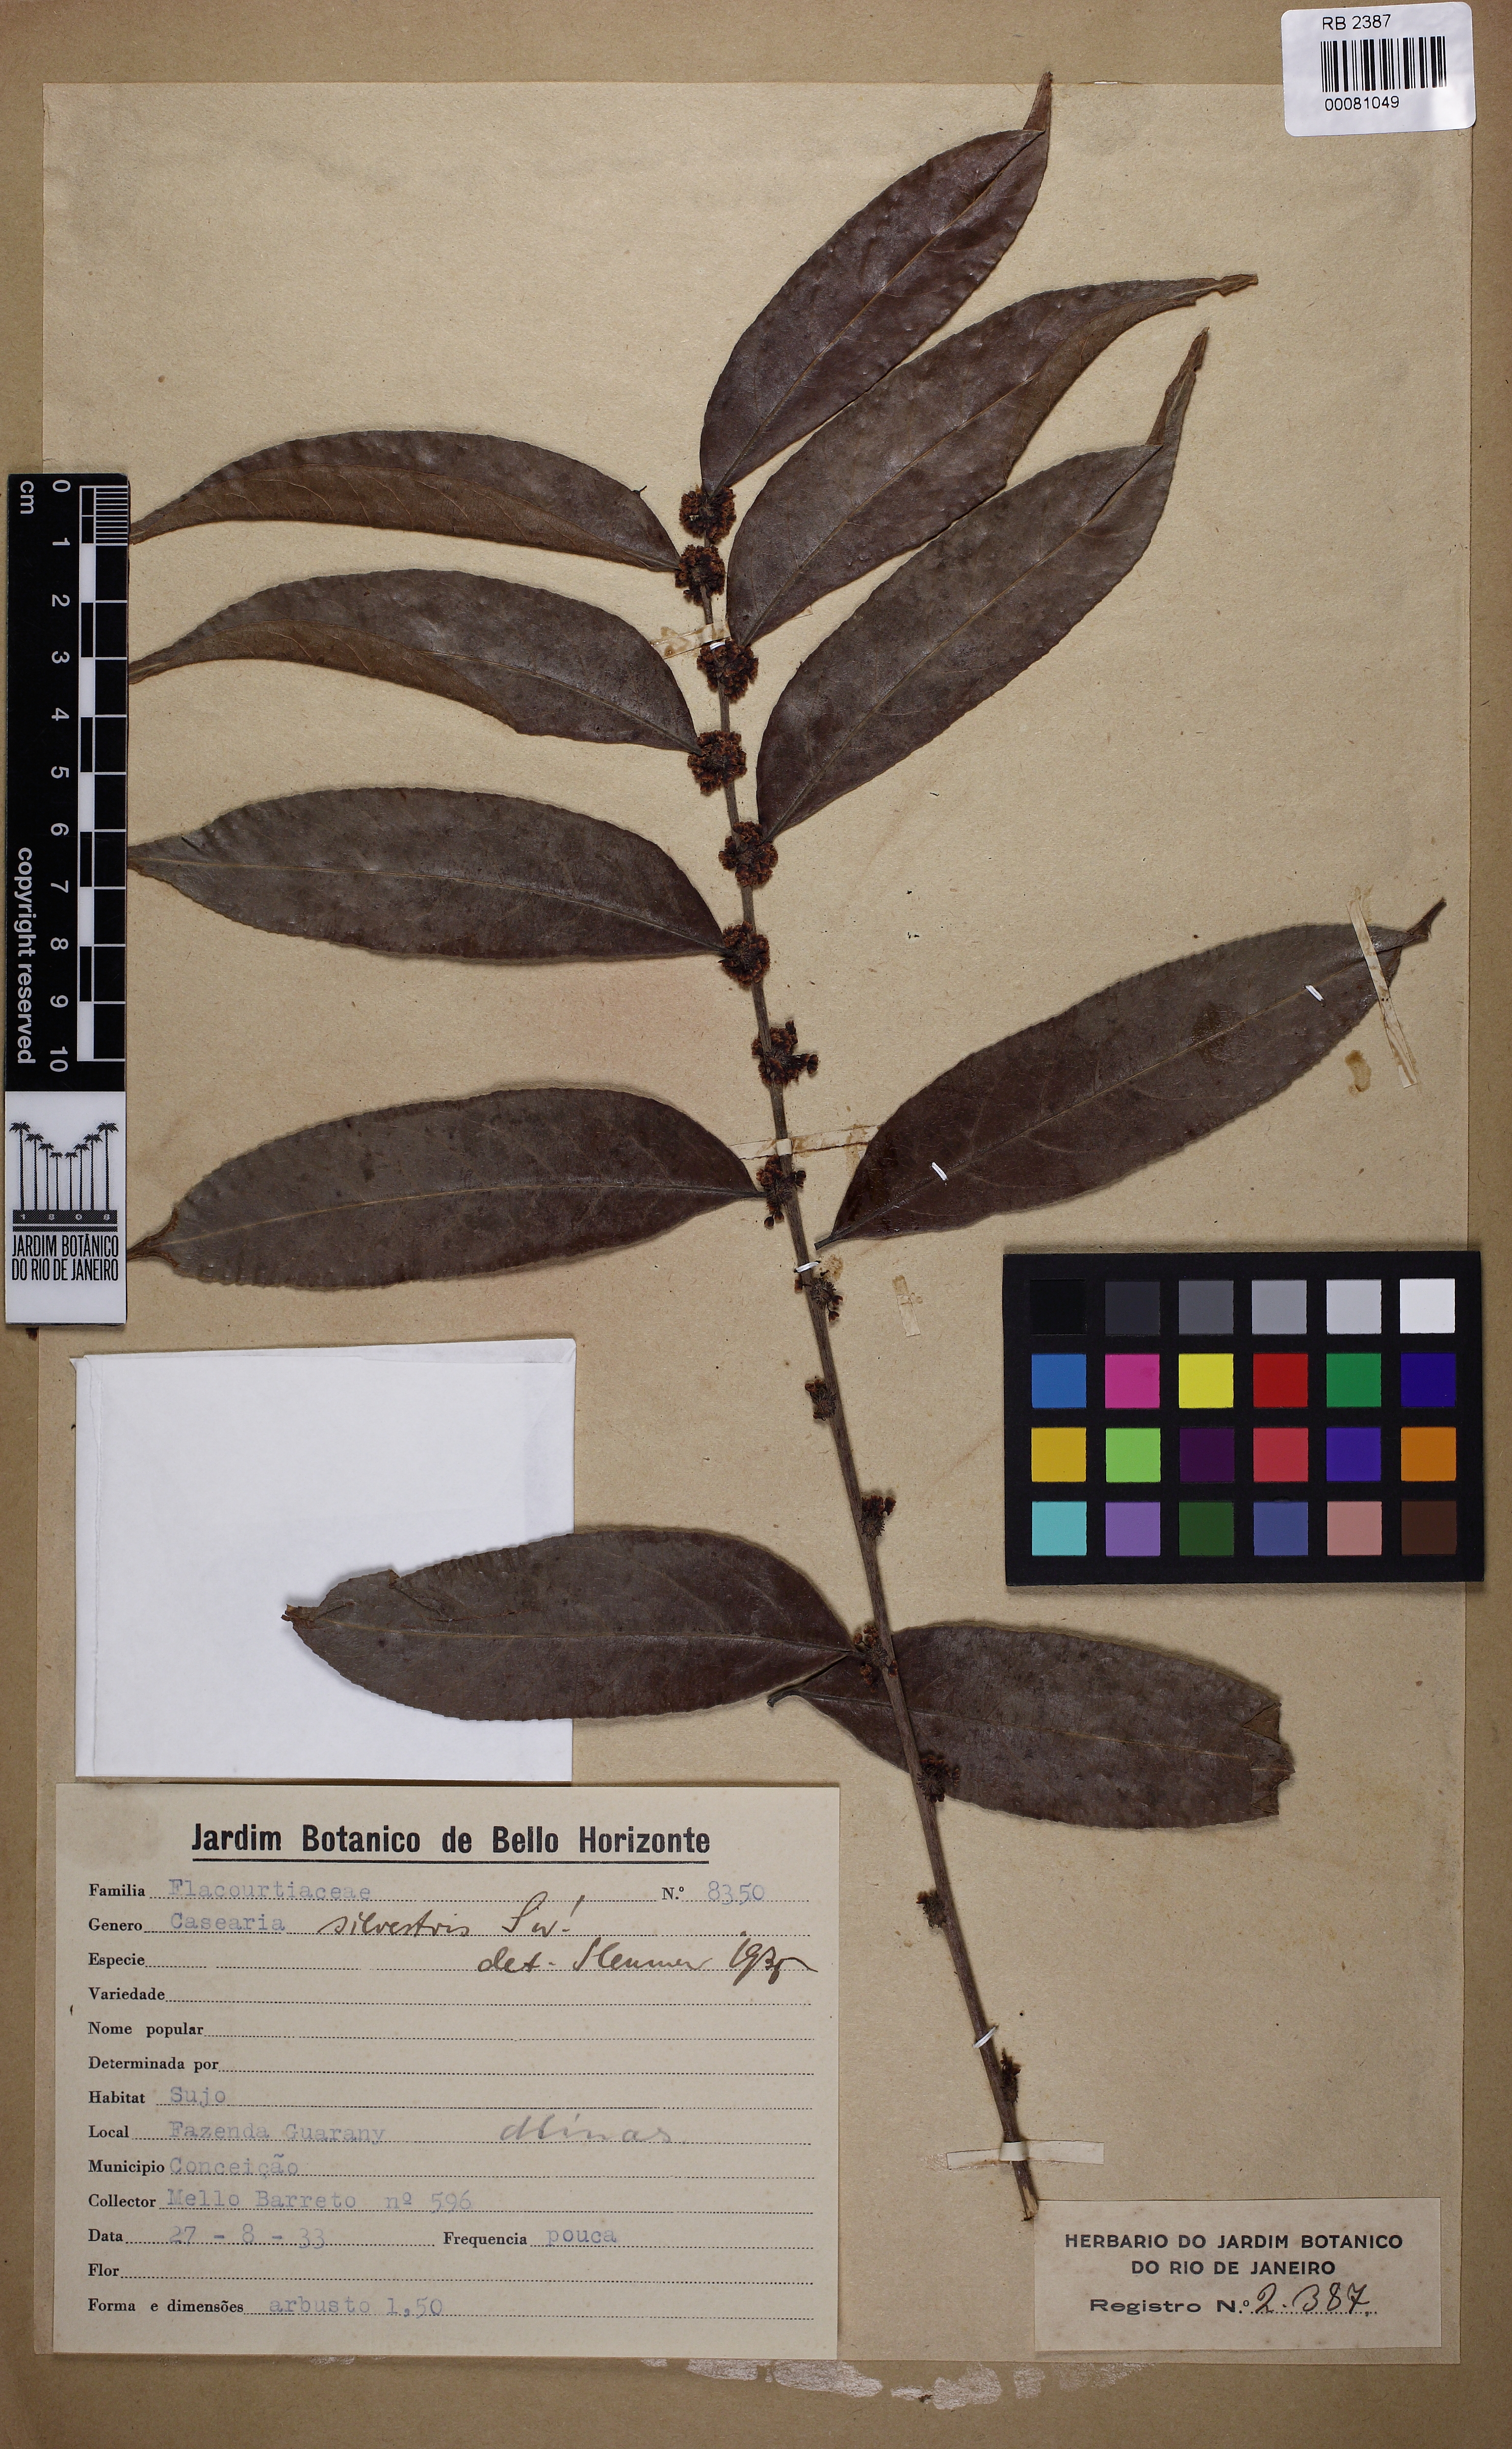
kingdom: Plantae
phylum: Tracheophyta
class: Magnoliopsida
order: Malpighiales
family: Salicaceae
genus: Casearia
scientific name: Casearia sylvestris
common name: Wild sage
